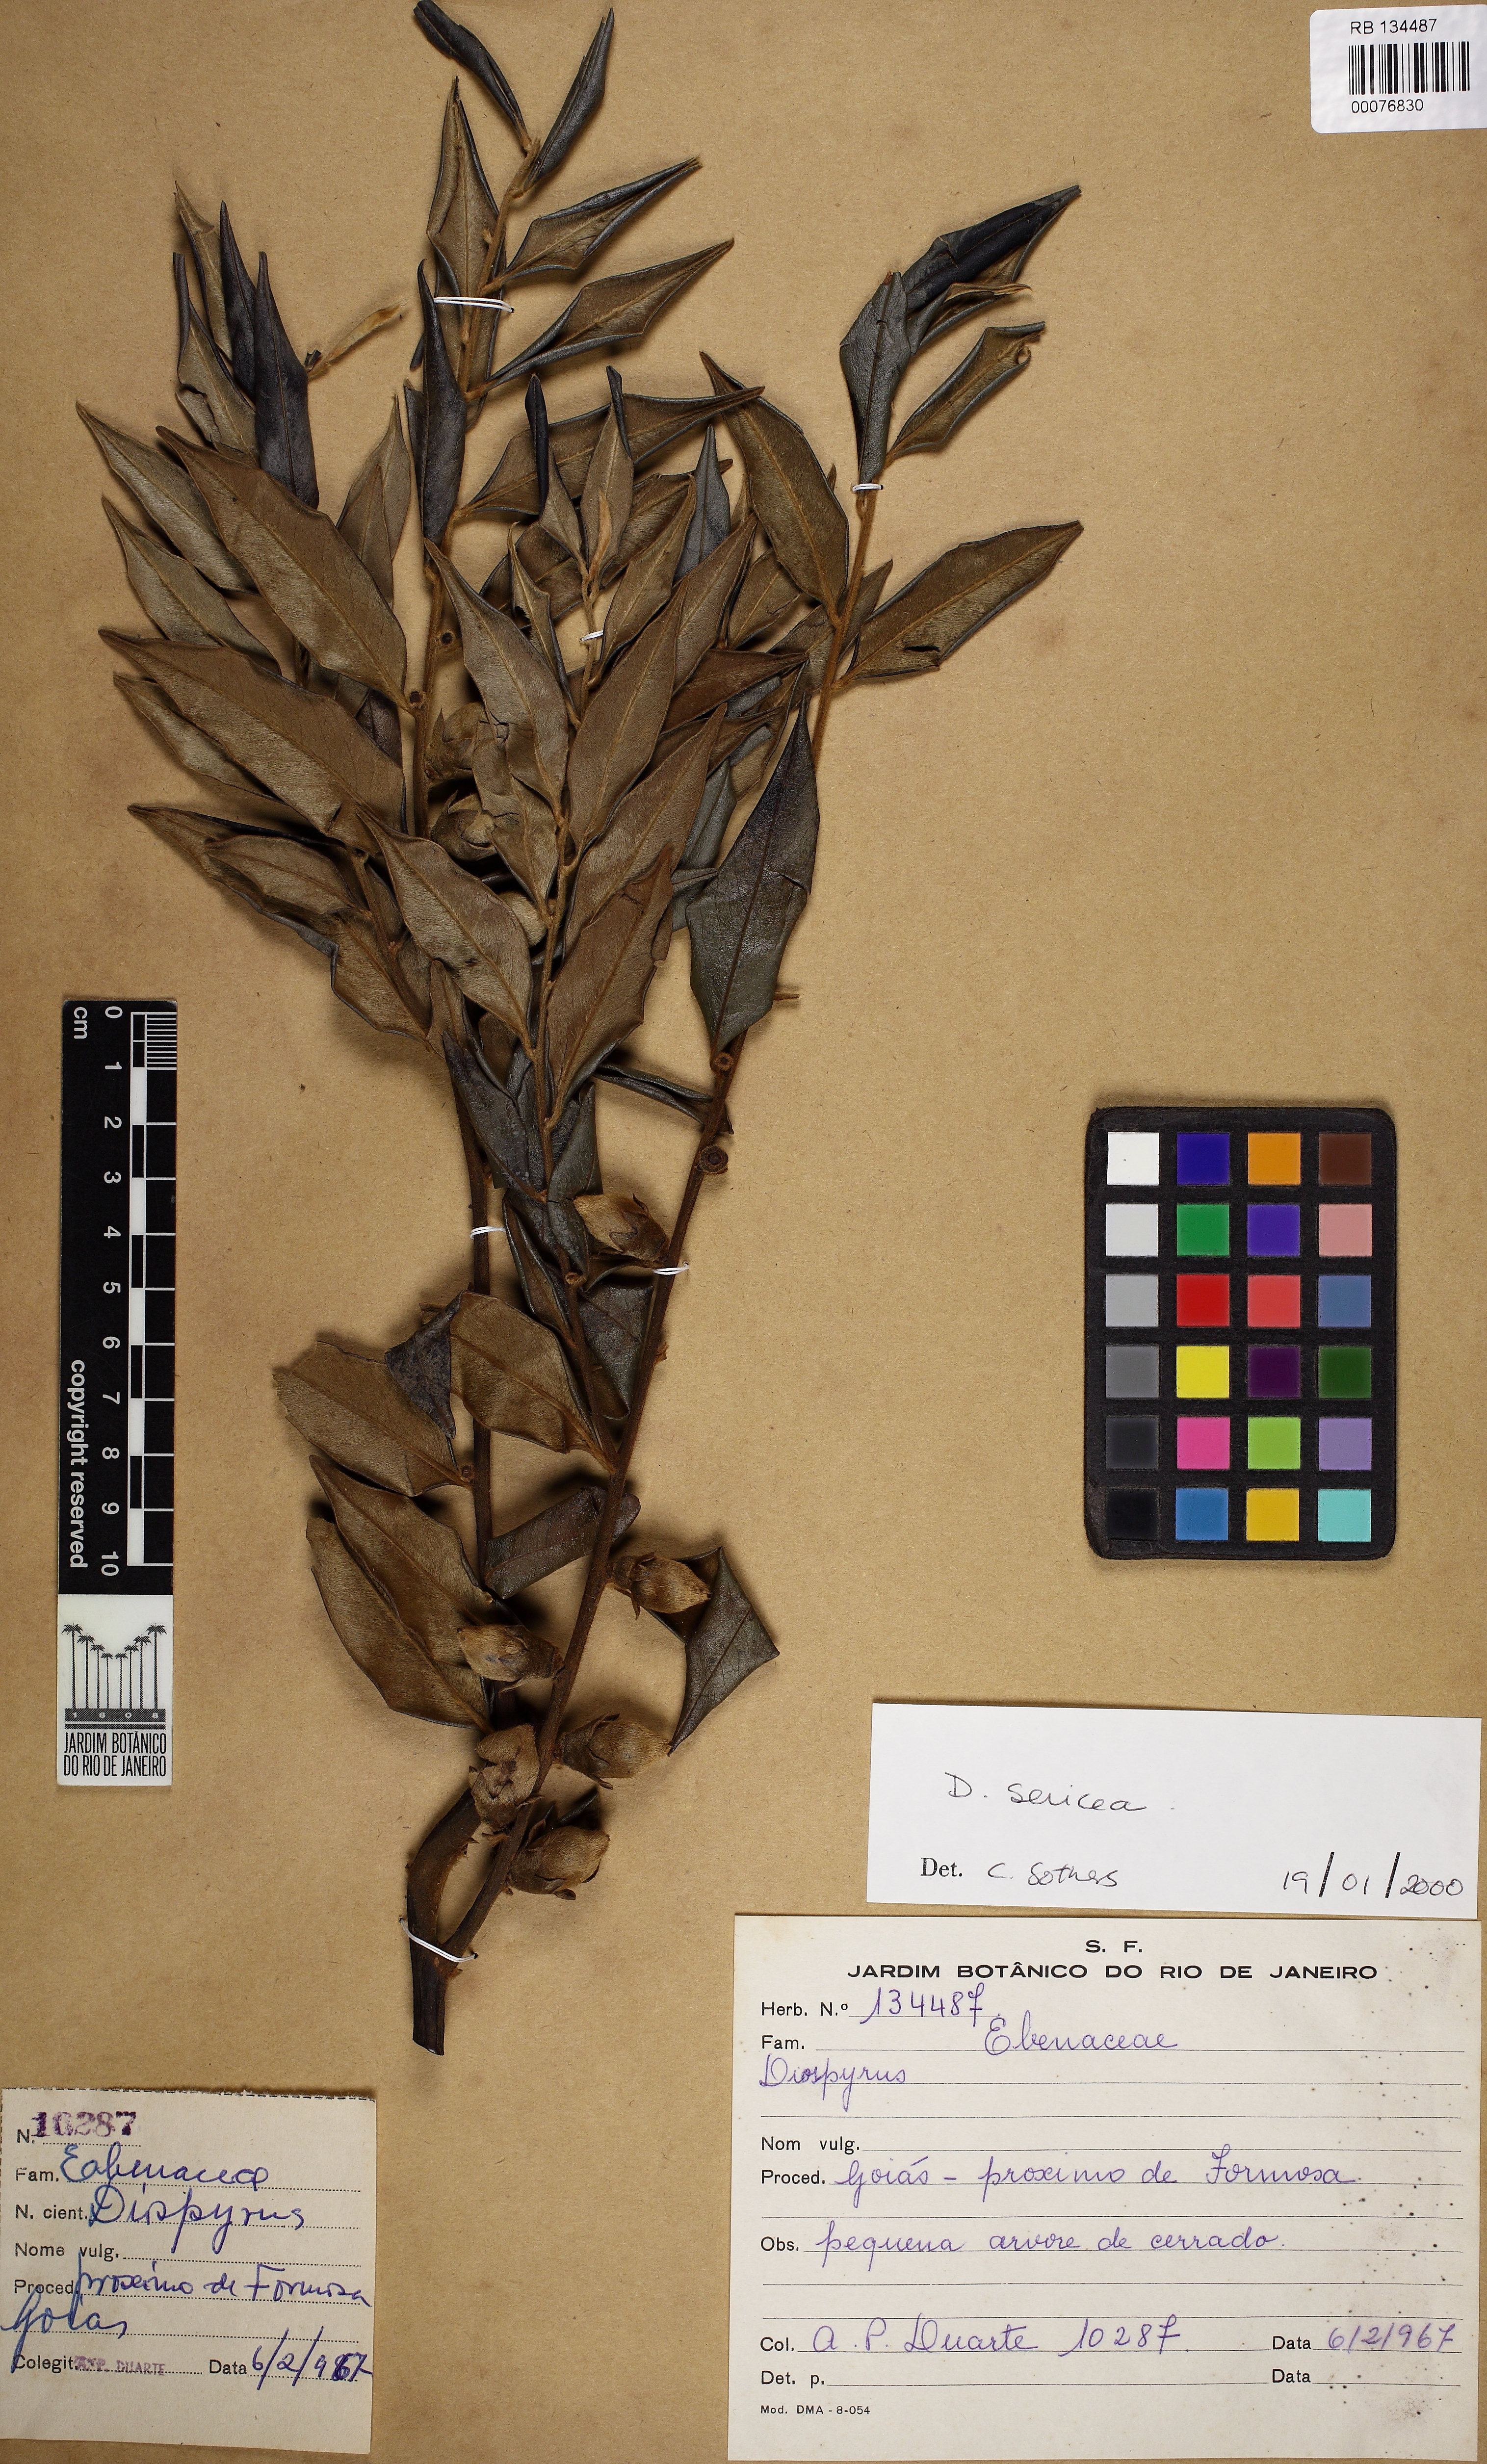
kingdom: Plantae
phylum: Tracheophyta
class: Magnoliopsida
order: Ericales
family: Ebenaceae
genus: Diospyros
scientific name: Diospyros sericea
